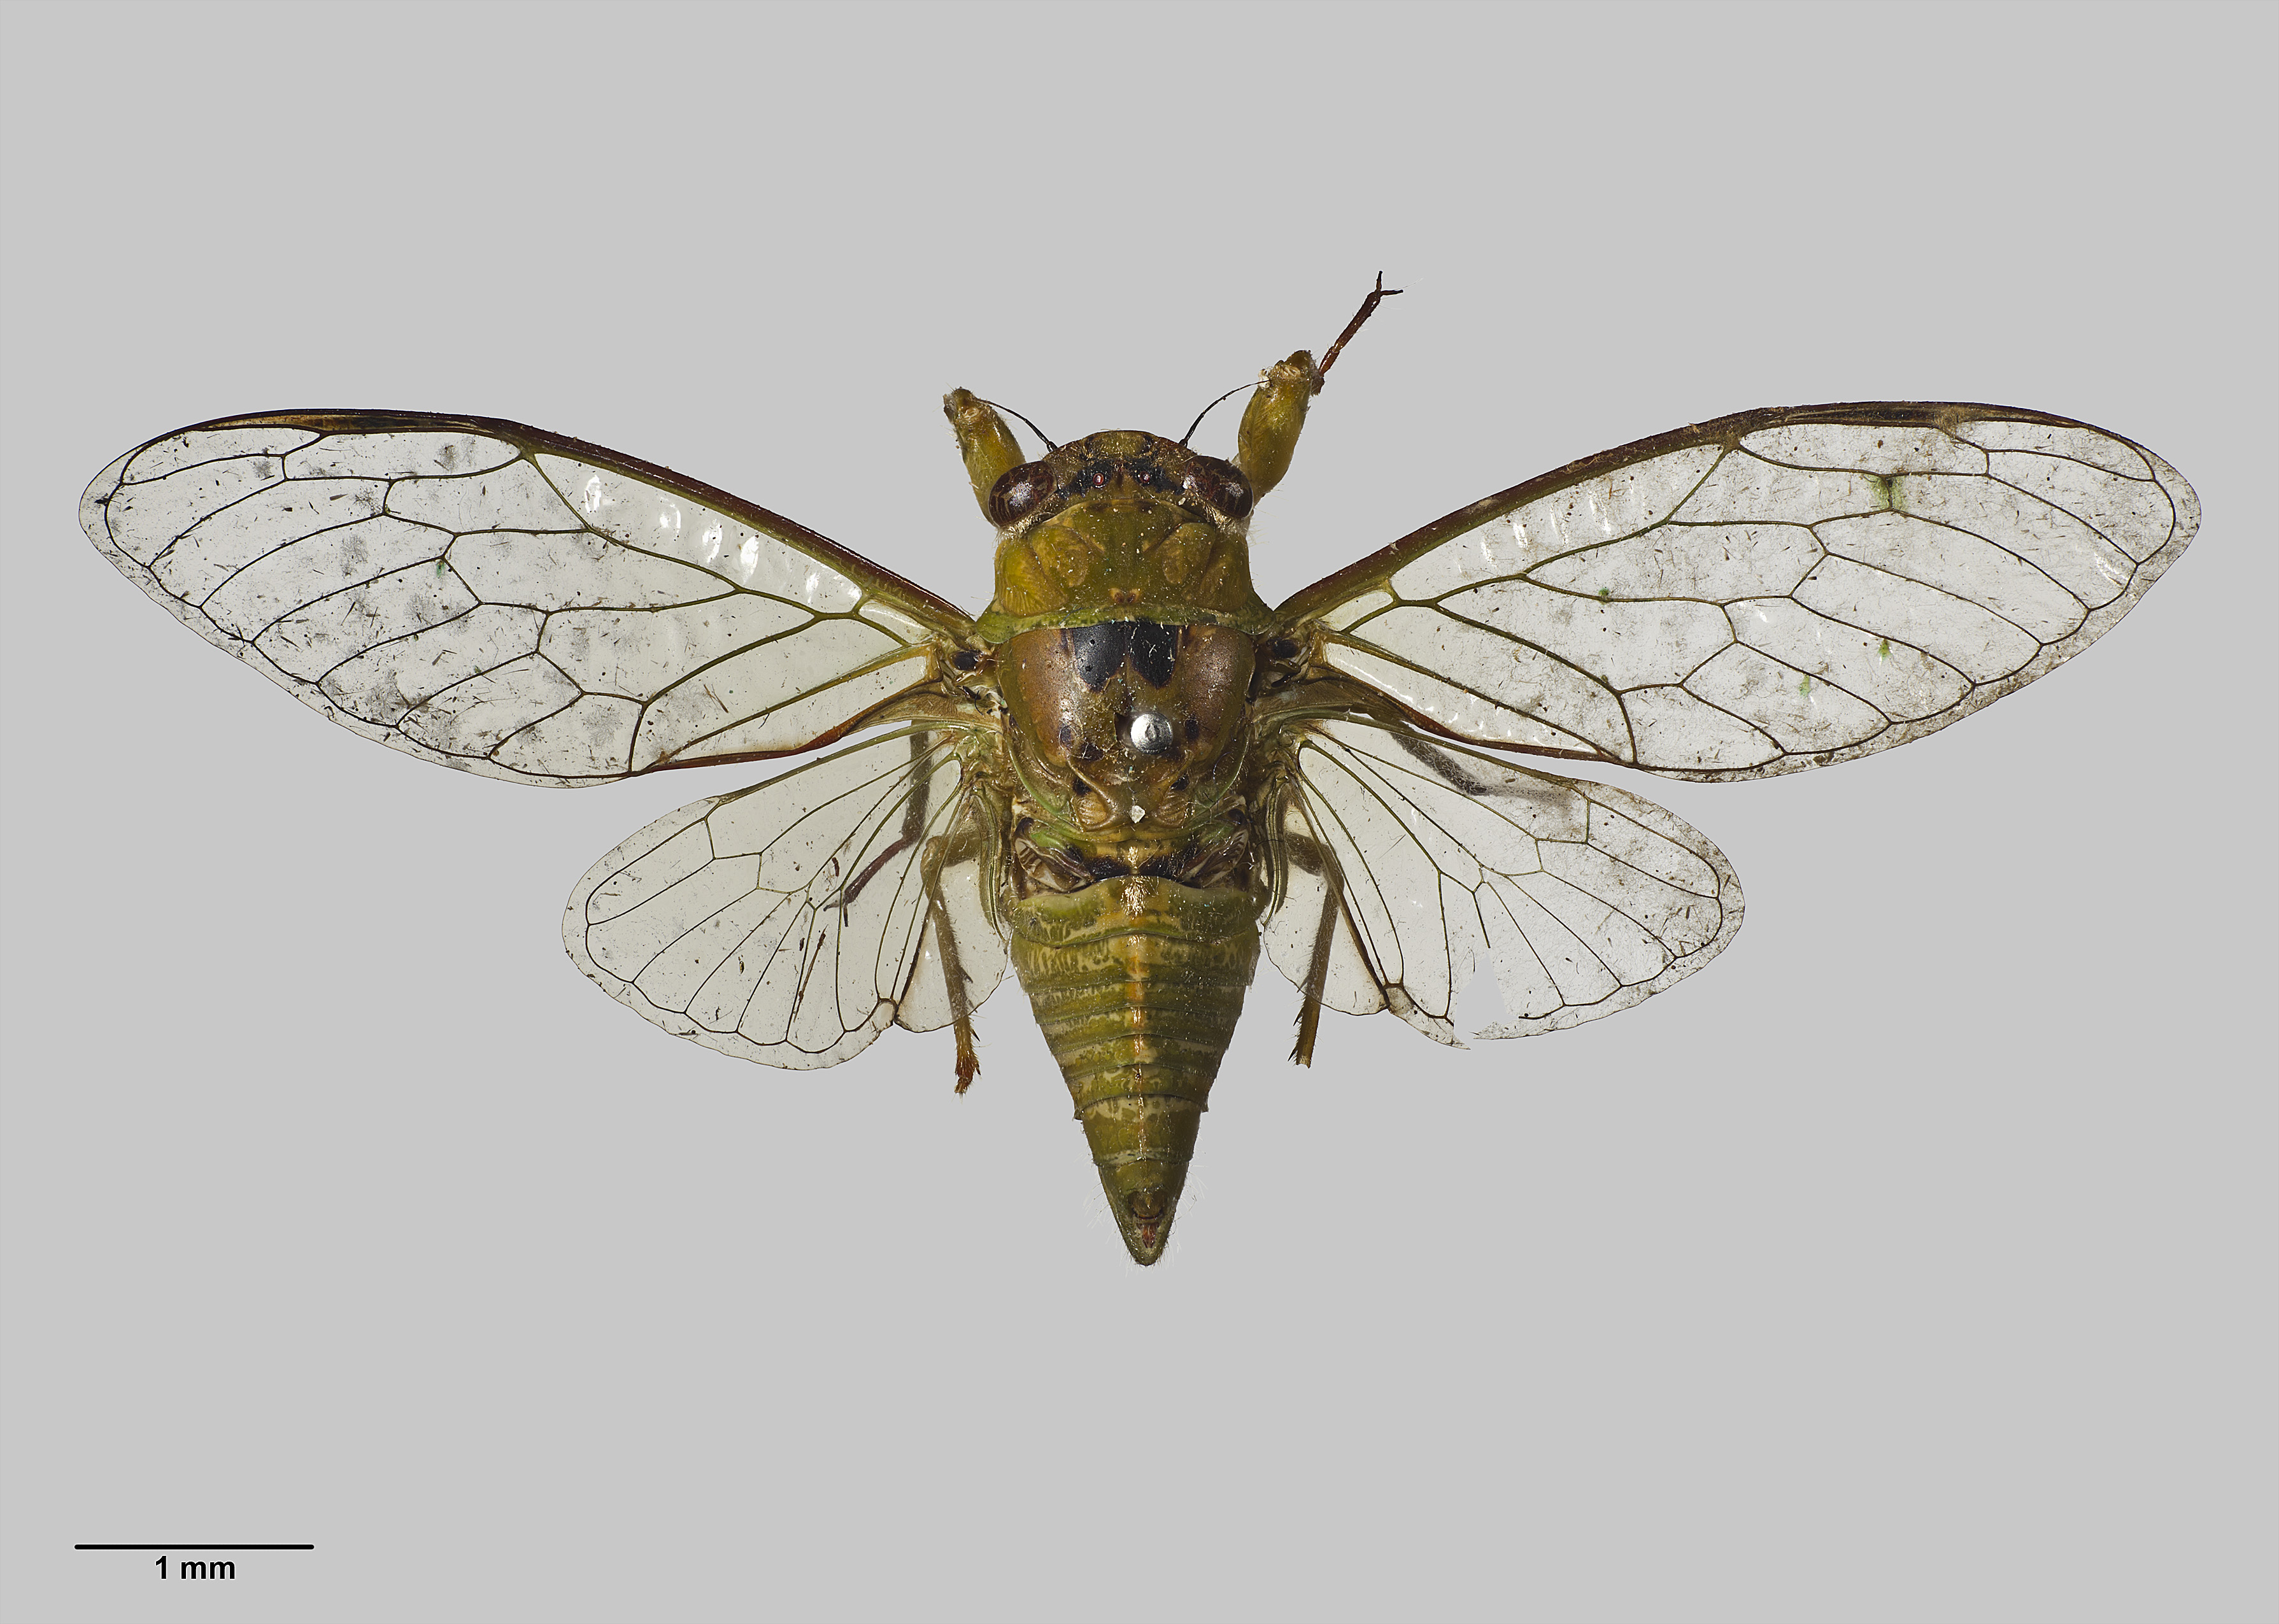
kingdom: Animalia
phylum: Arthropoda
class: Insecta
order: Hemiptera
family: Cicadidae
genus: Kikihia
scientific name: Kikihia ochrina
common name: April green cicada
